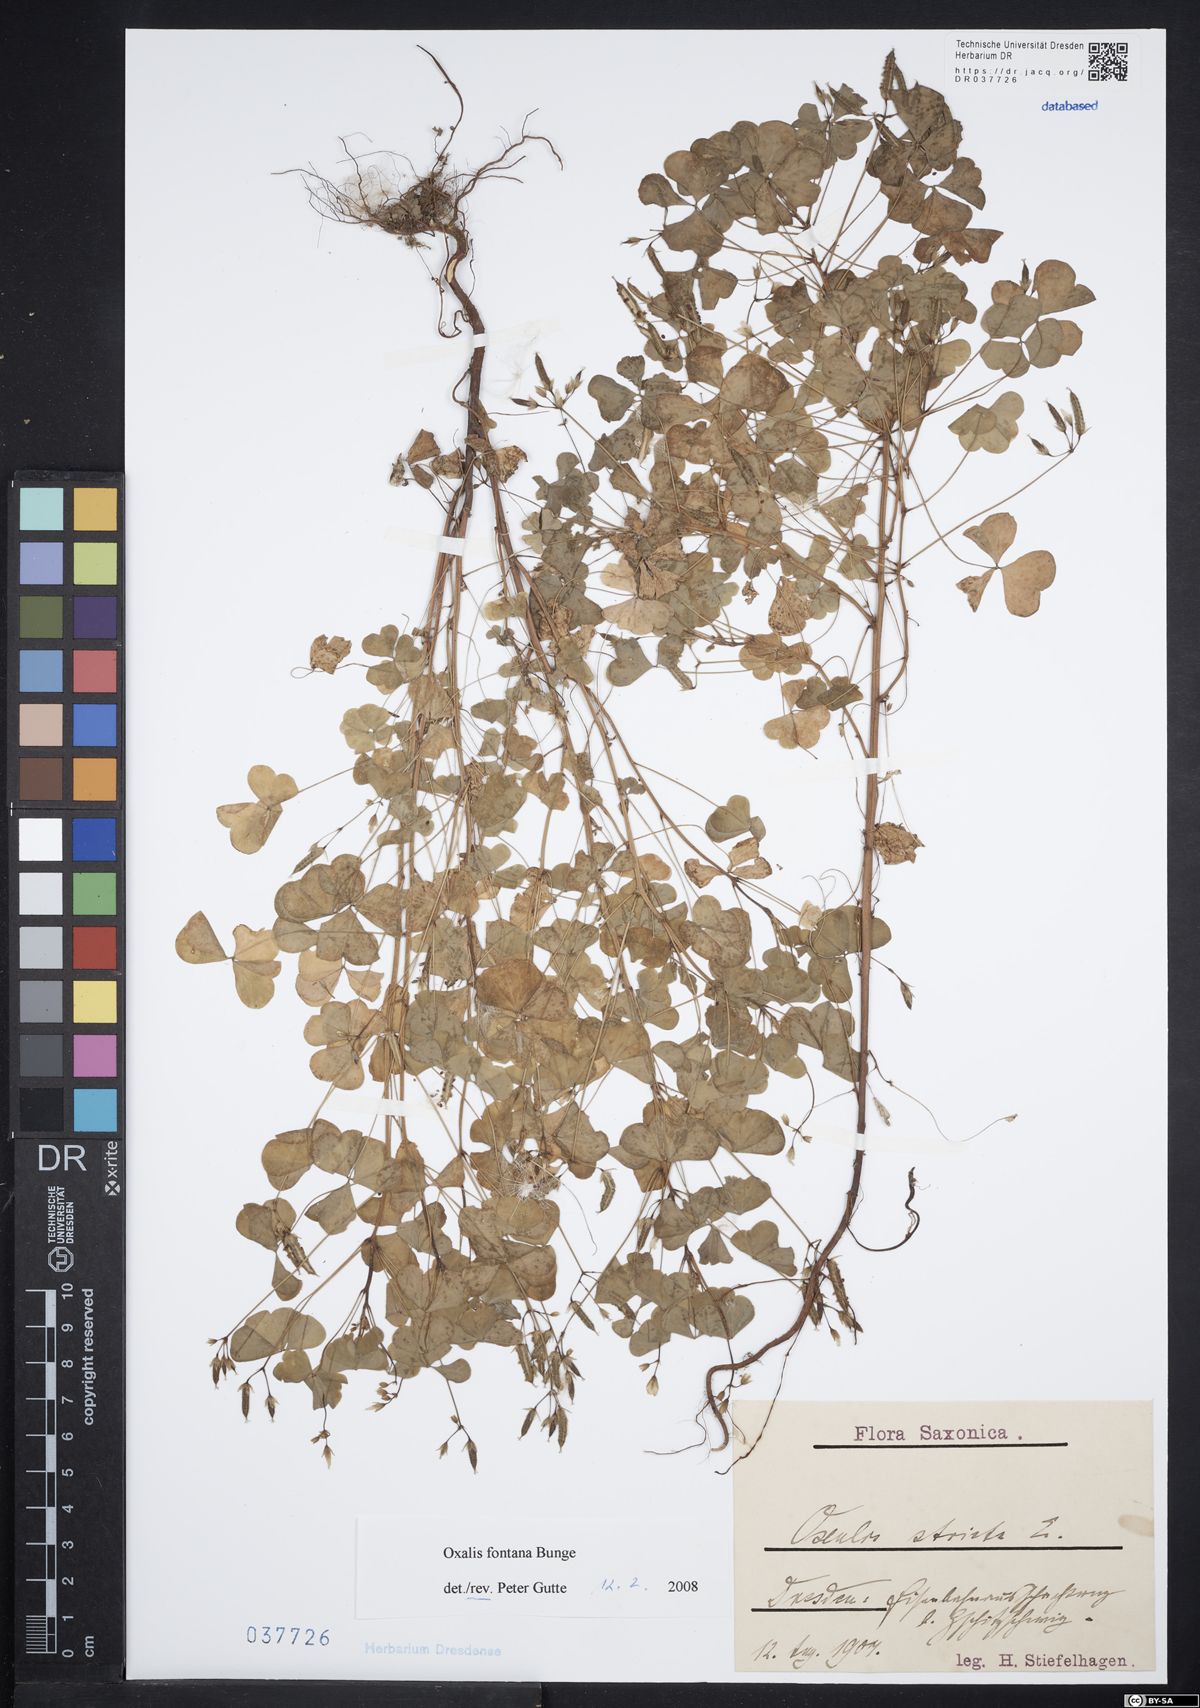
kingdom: Plantae
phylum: Tracheophyta
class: Magnoliopsida
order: Oxalidales
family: Oxalidaceae
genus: Oxalis
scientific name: Oxalis stricta
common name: Upright yellow-sorrel
